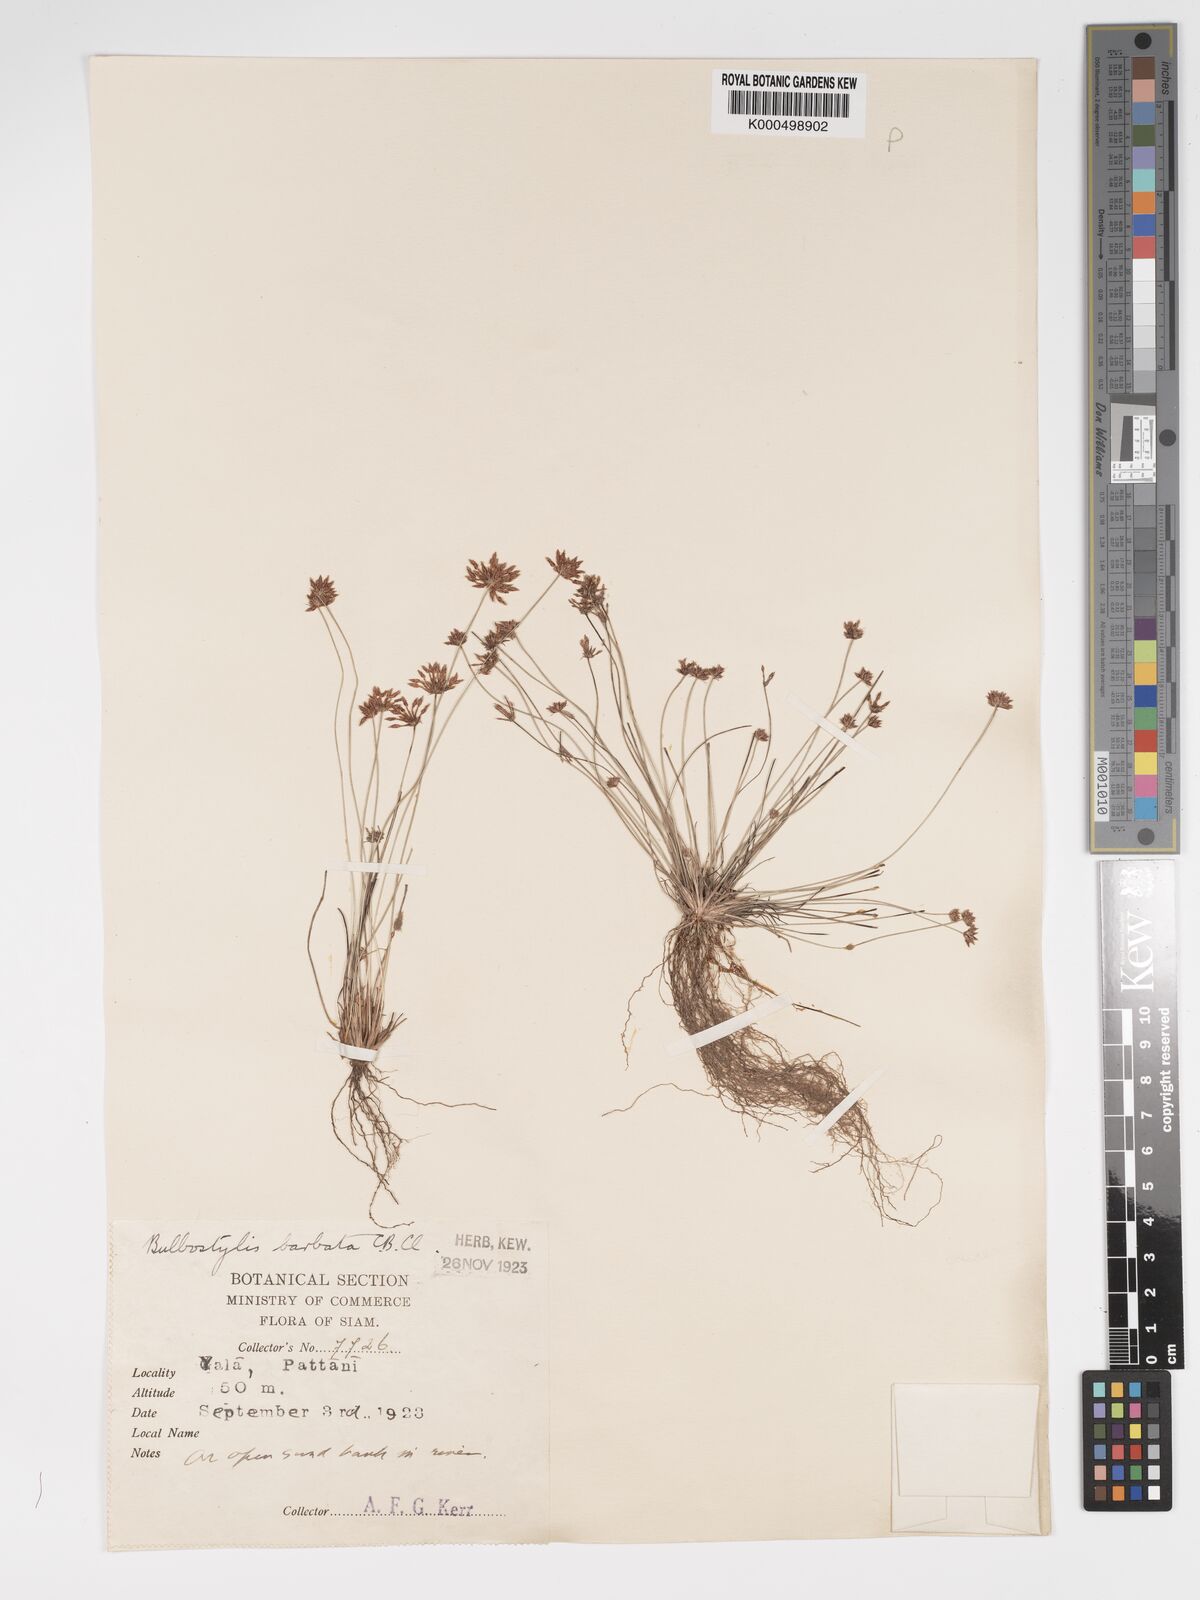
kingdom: Plantae
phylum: Tracheophyta
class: Liliopsida
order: Poales
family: Cyperaceae
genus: Bulbostylis
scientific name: Bulbostylis barbata
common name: Watergrass
